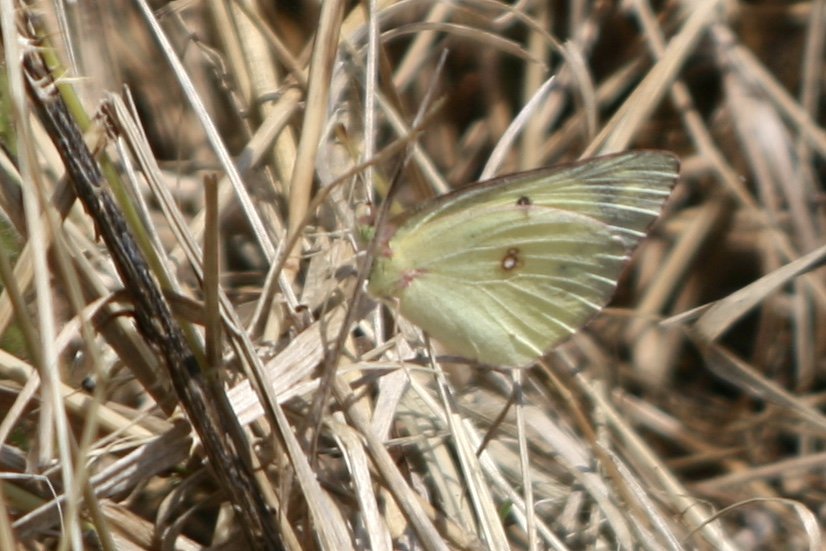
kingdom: Animalia
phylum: Arthropoda
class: Insecta
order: Lepidoptera
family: Pieridae
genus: Colias
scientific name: Colias philodice
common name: Clouded Sulphur
